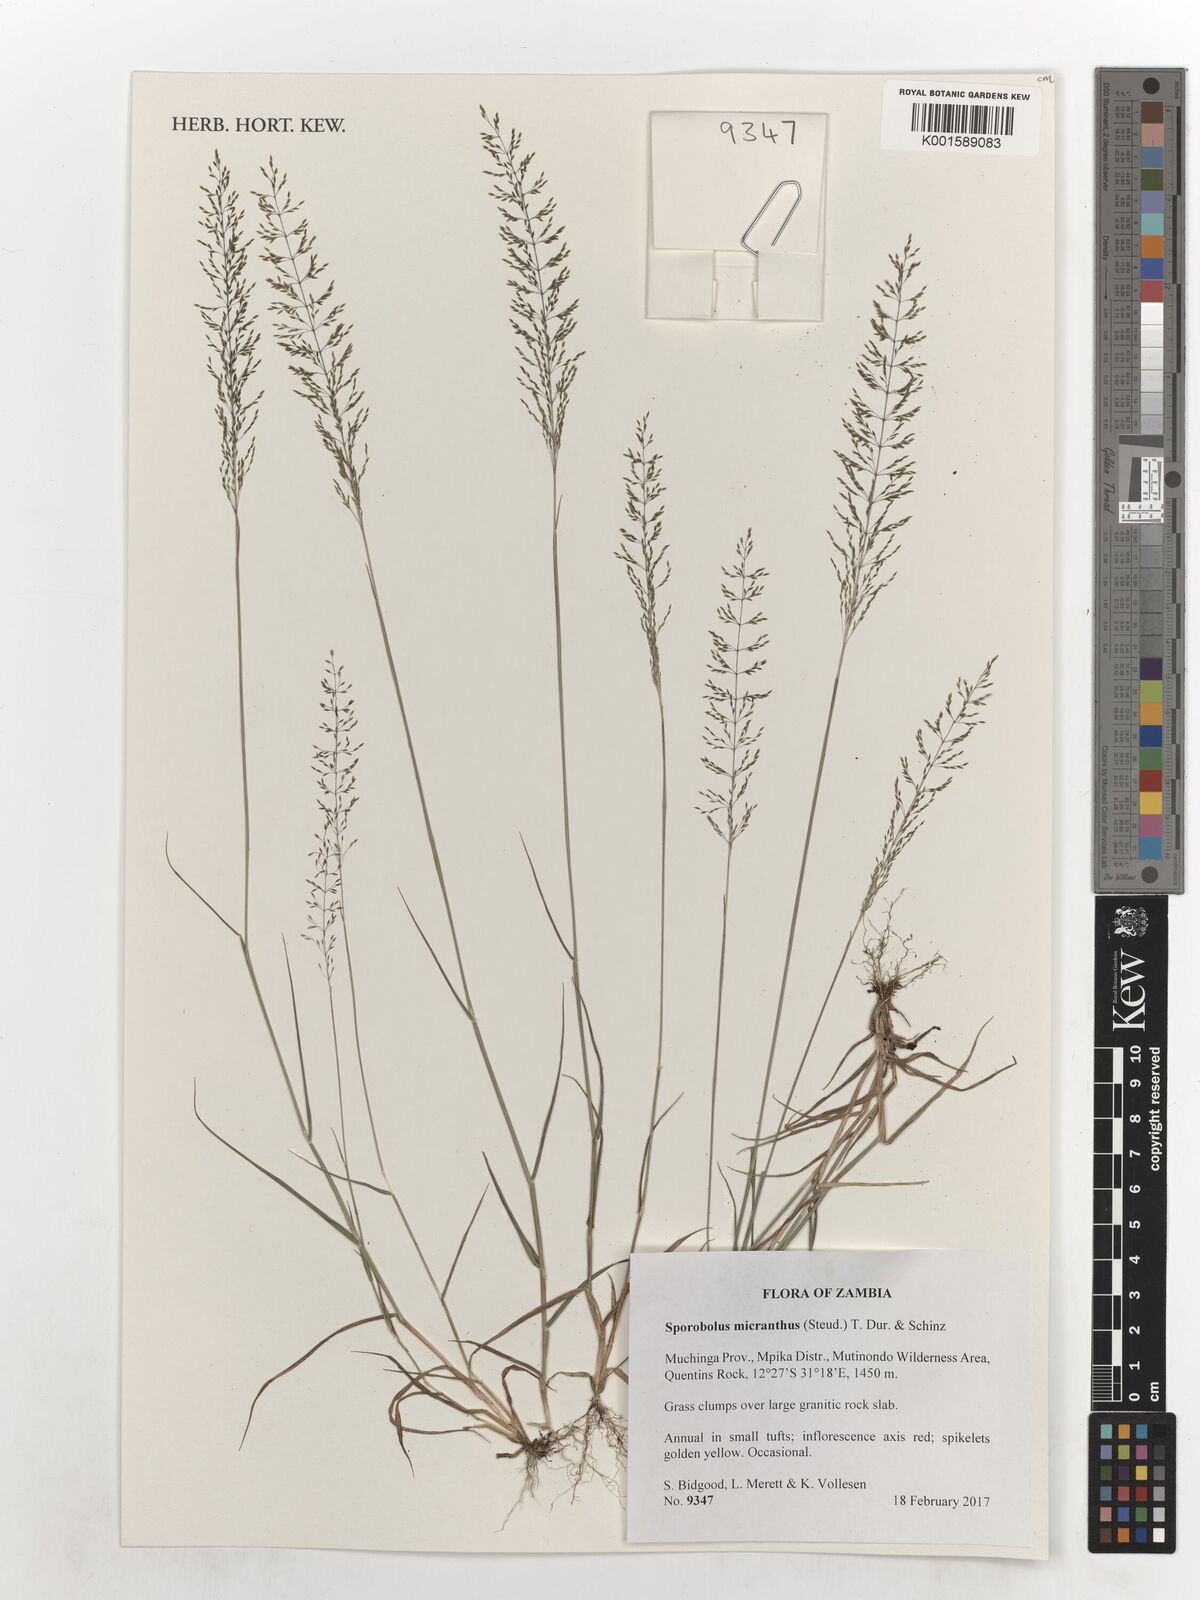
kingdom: Plantae
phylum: Tracheophyta
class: Liliopsida
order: Poales
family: Poaceae
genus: Sporobolus
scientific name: Sporobolus micranthus
